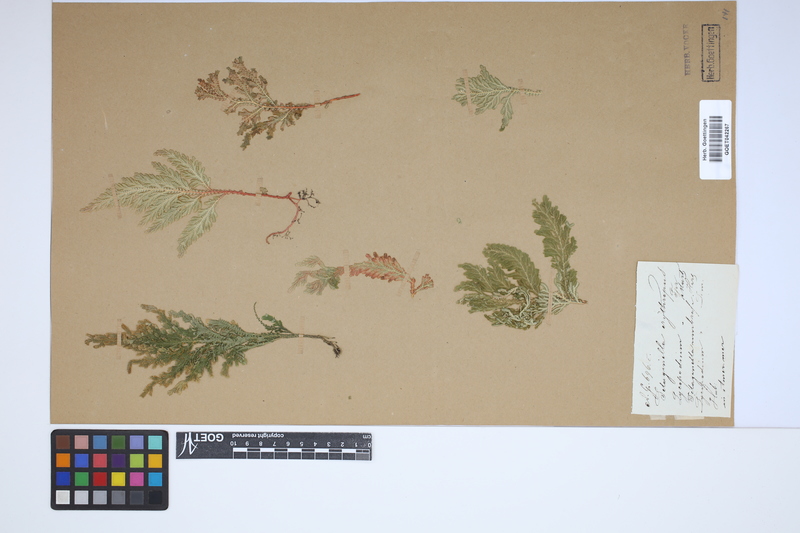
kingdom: Plantae
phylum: Tracheophyta
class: Lycopodiopsida
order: Selaginellales
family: Selaginellaceae
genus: Selaginella
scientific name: Selaginella erythropus
